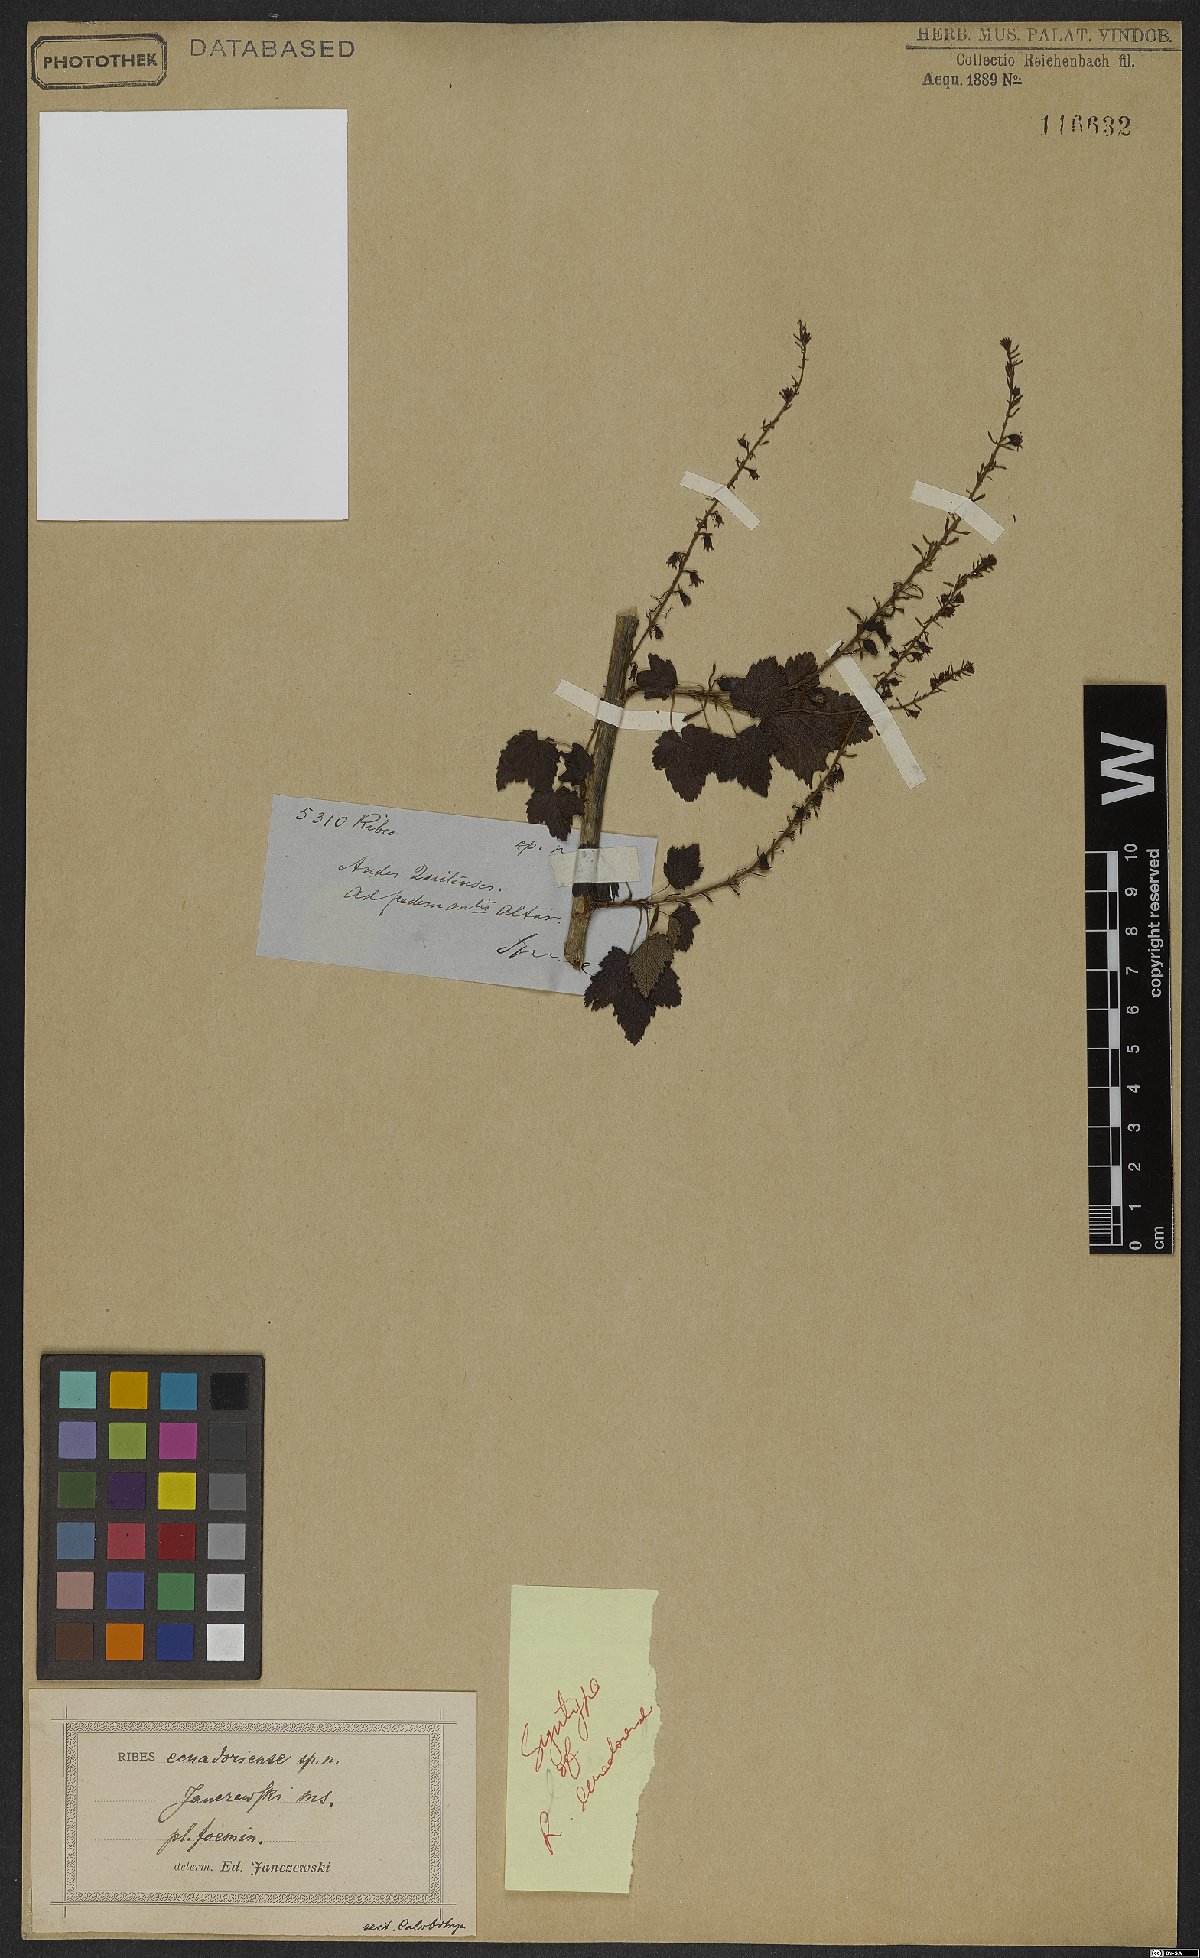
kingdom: Plantae
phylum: Tracheophyta
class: Magnoliopsida
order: Saxifragales
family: Grossulariaceae
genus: Ribes
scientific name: Ribes ecuadorense
